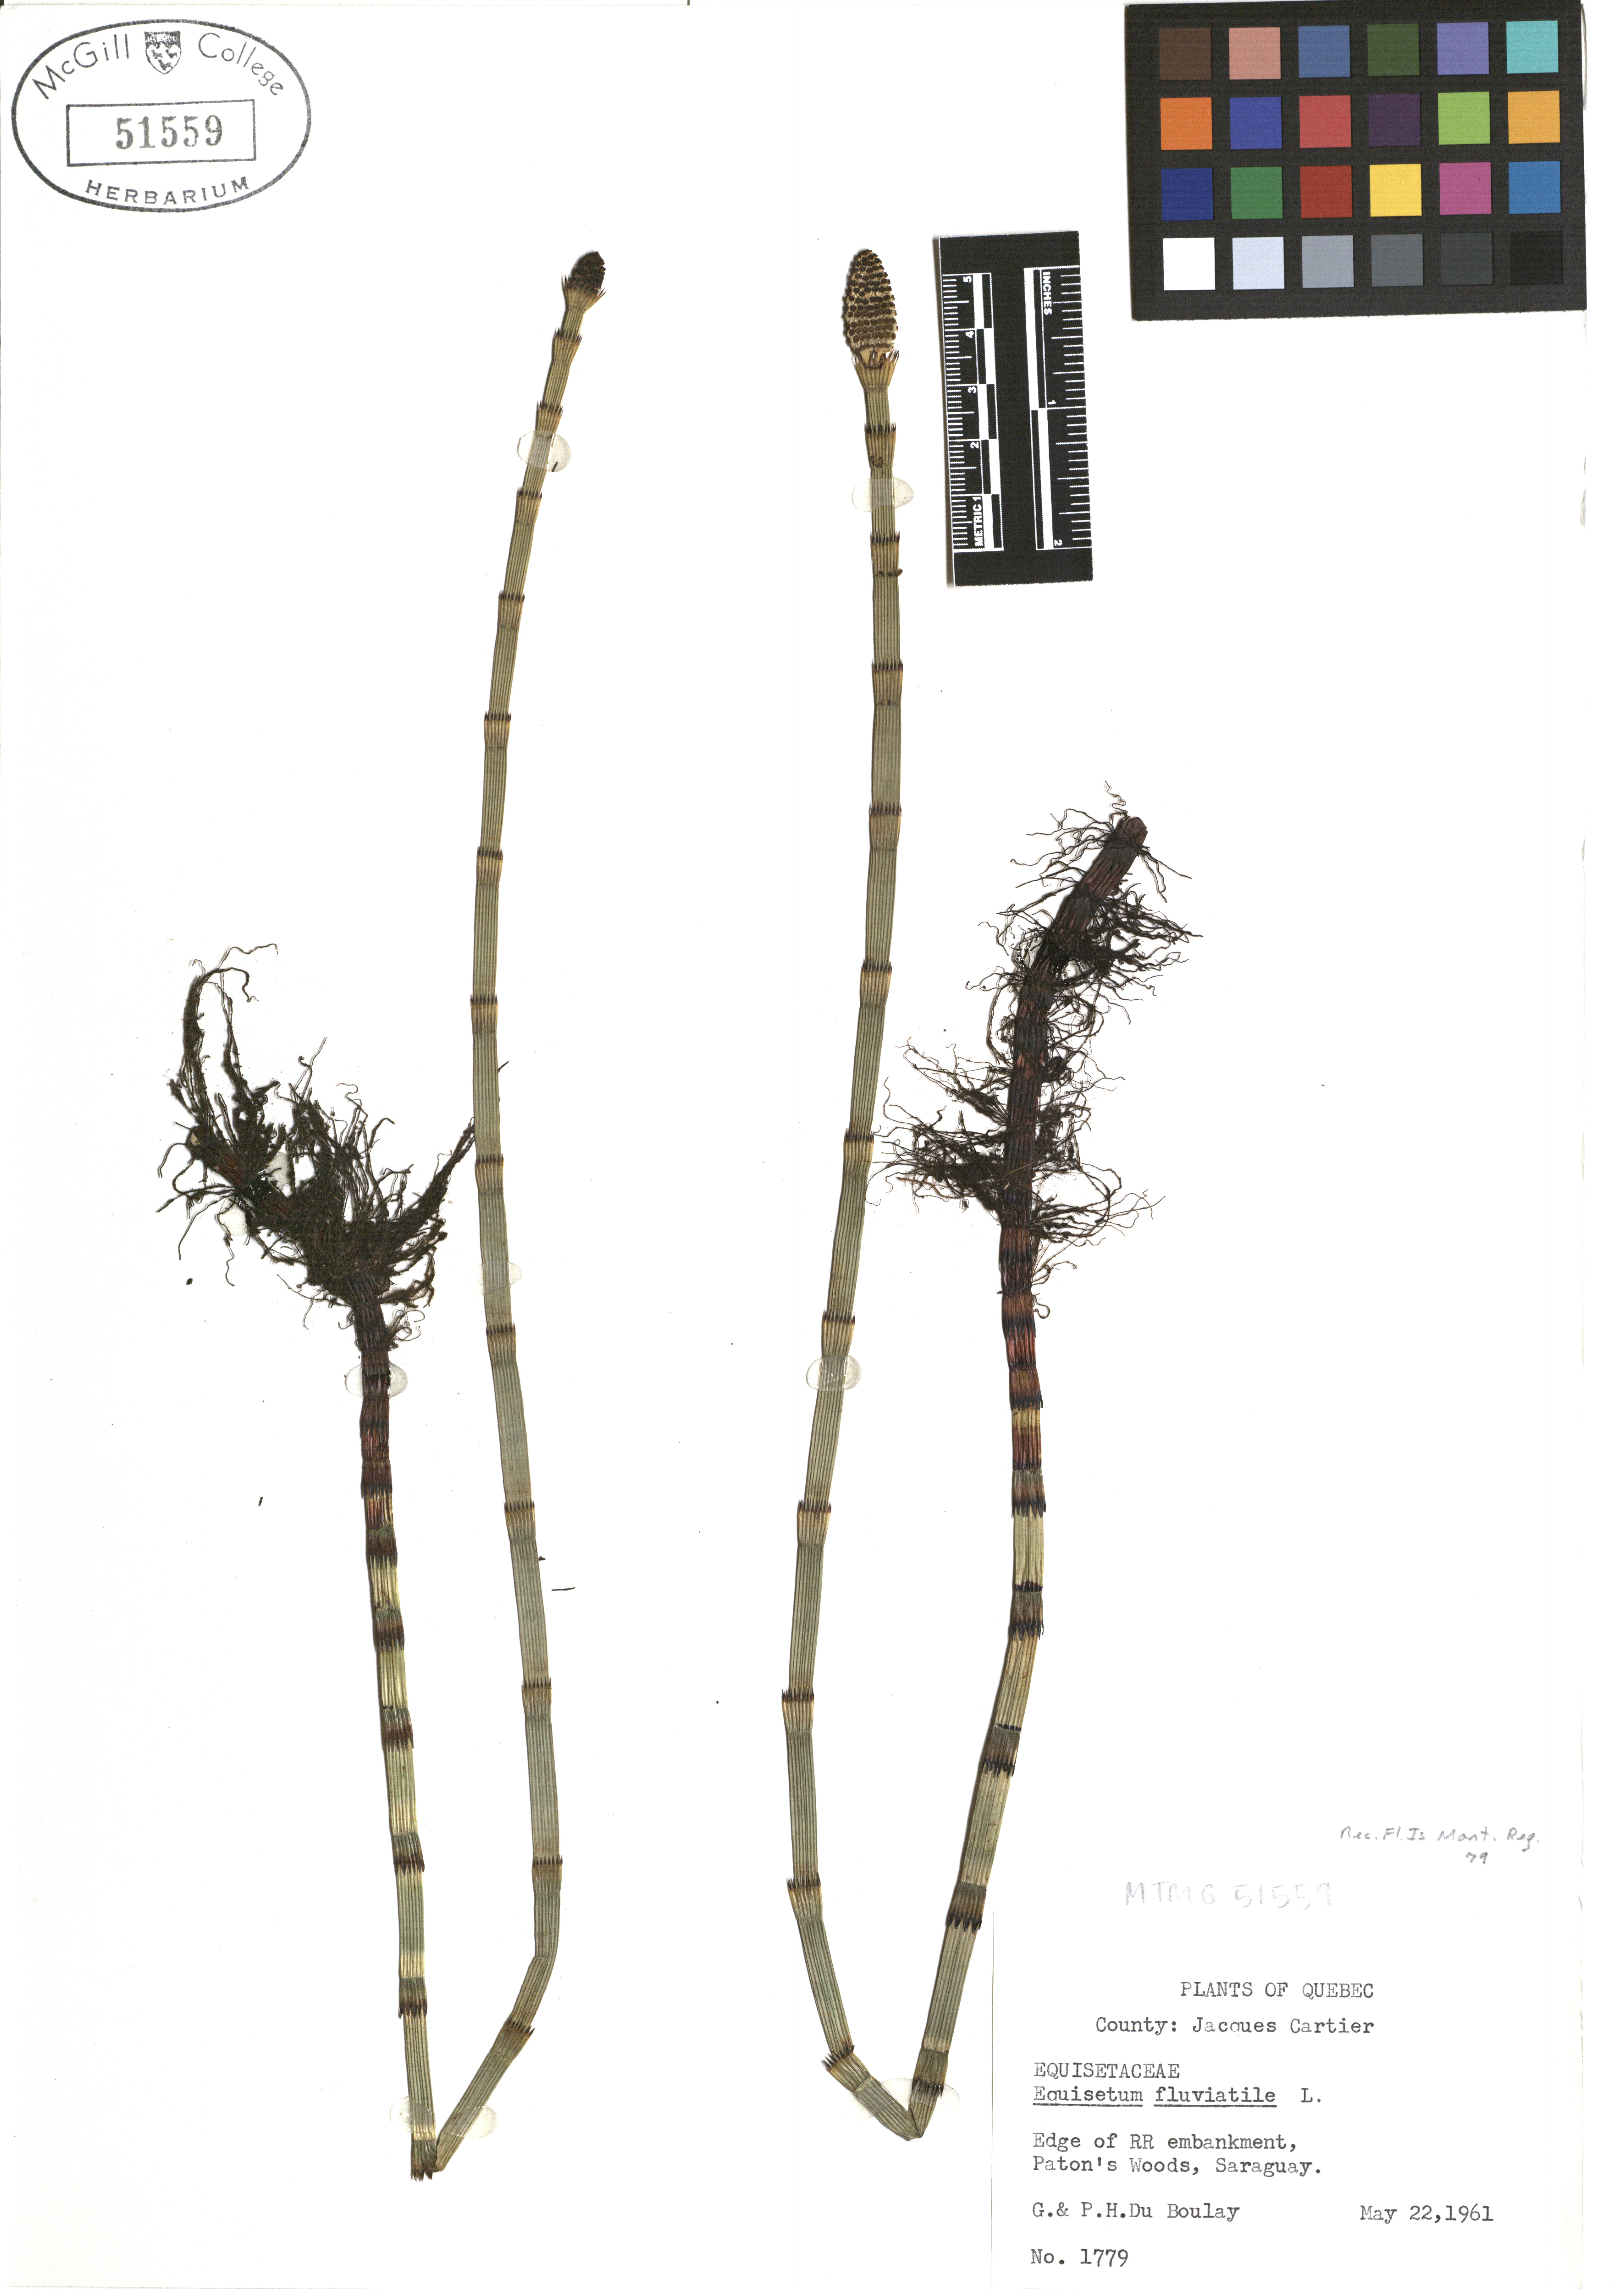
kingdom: Plantae
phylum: Tracheophyta
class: Polypodiopsida
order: Equisetales
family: Equisetaceae
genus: Equisetum
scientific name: Equisetum fluviatile
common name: Water horsetail
